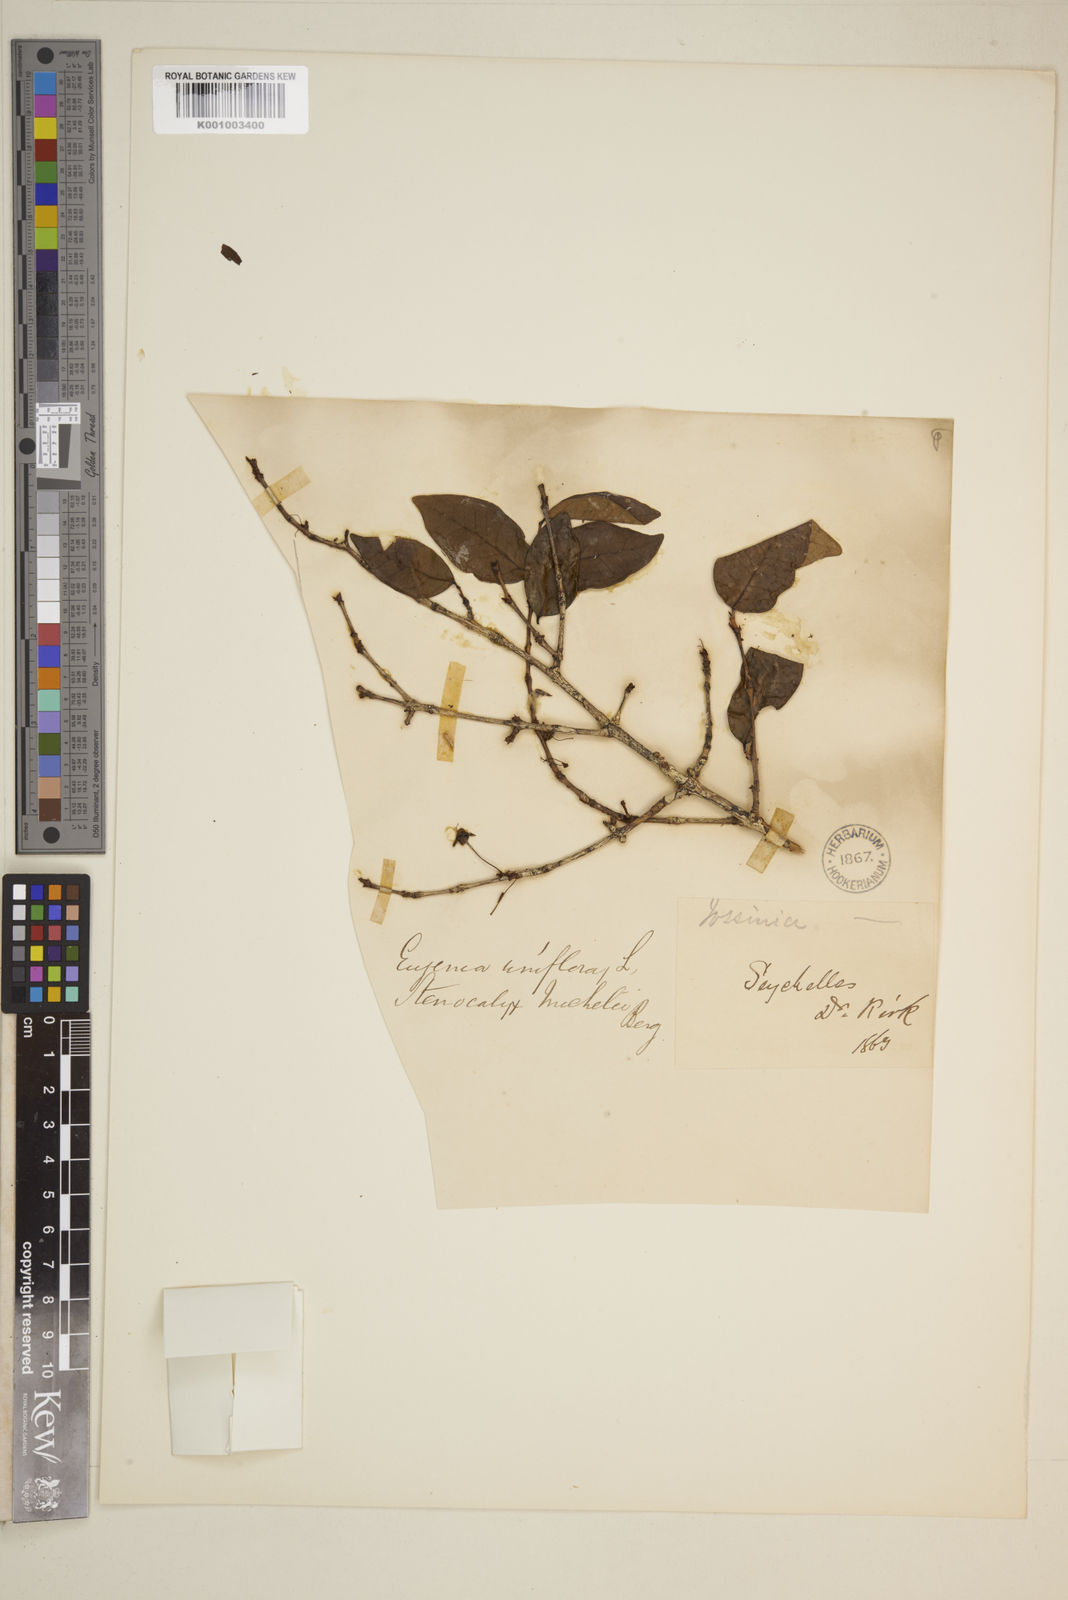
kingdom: Plantae
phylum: Tracheophyta
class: Magnoliopsida
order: Myrtales
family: Myrtaceae
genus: Eugenia
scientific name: Eugenia uniflora
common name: Surinam cherry
